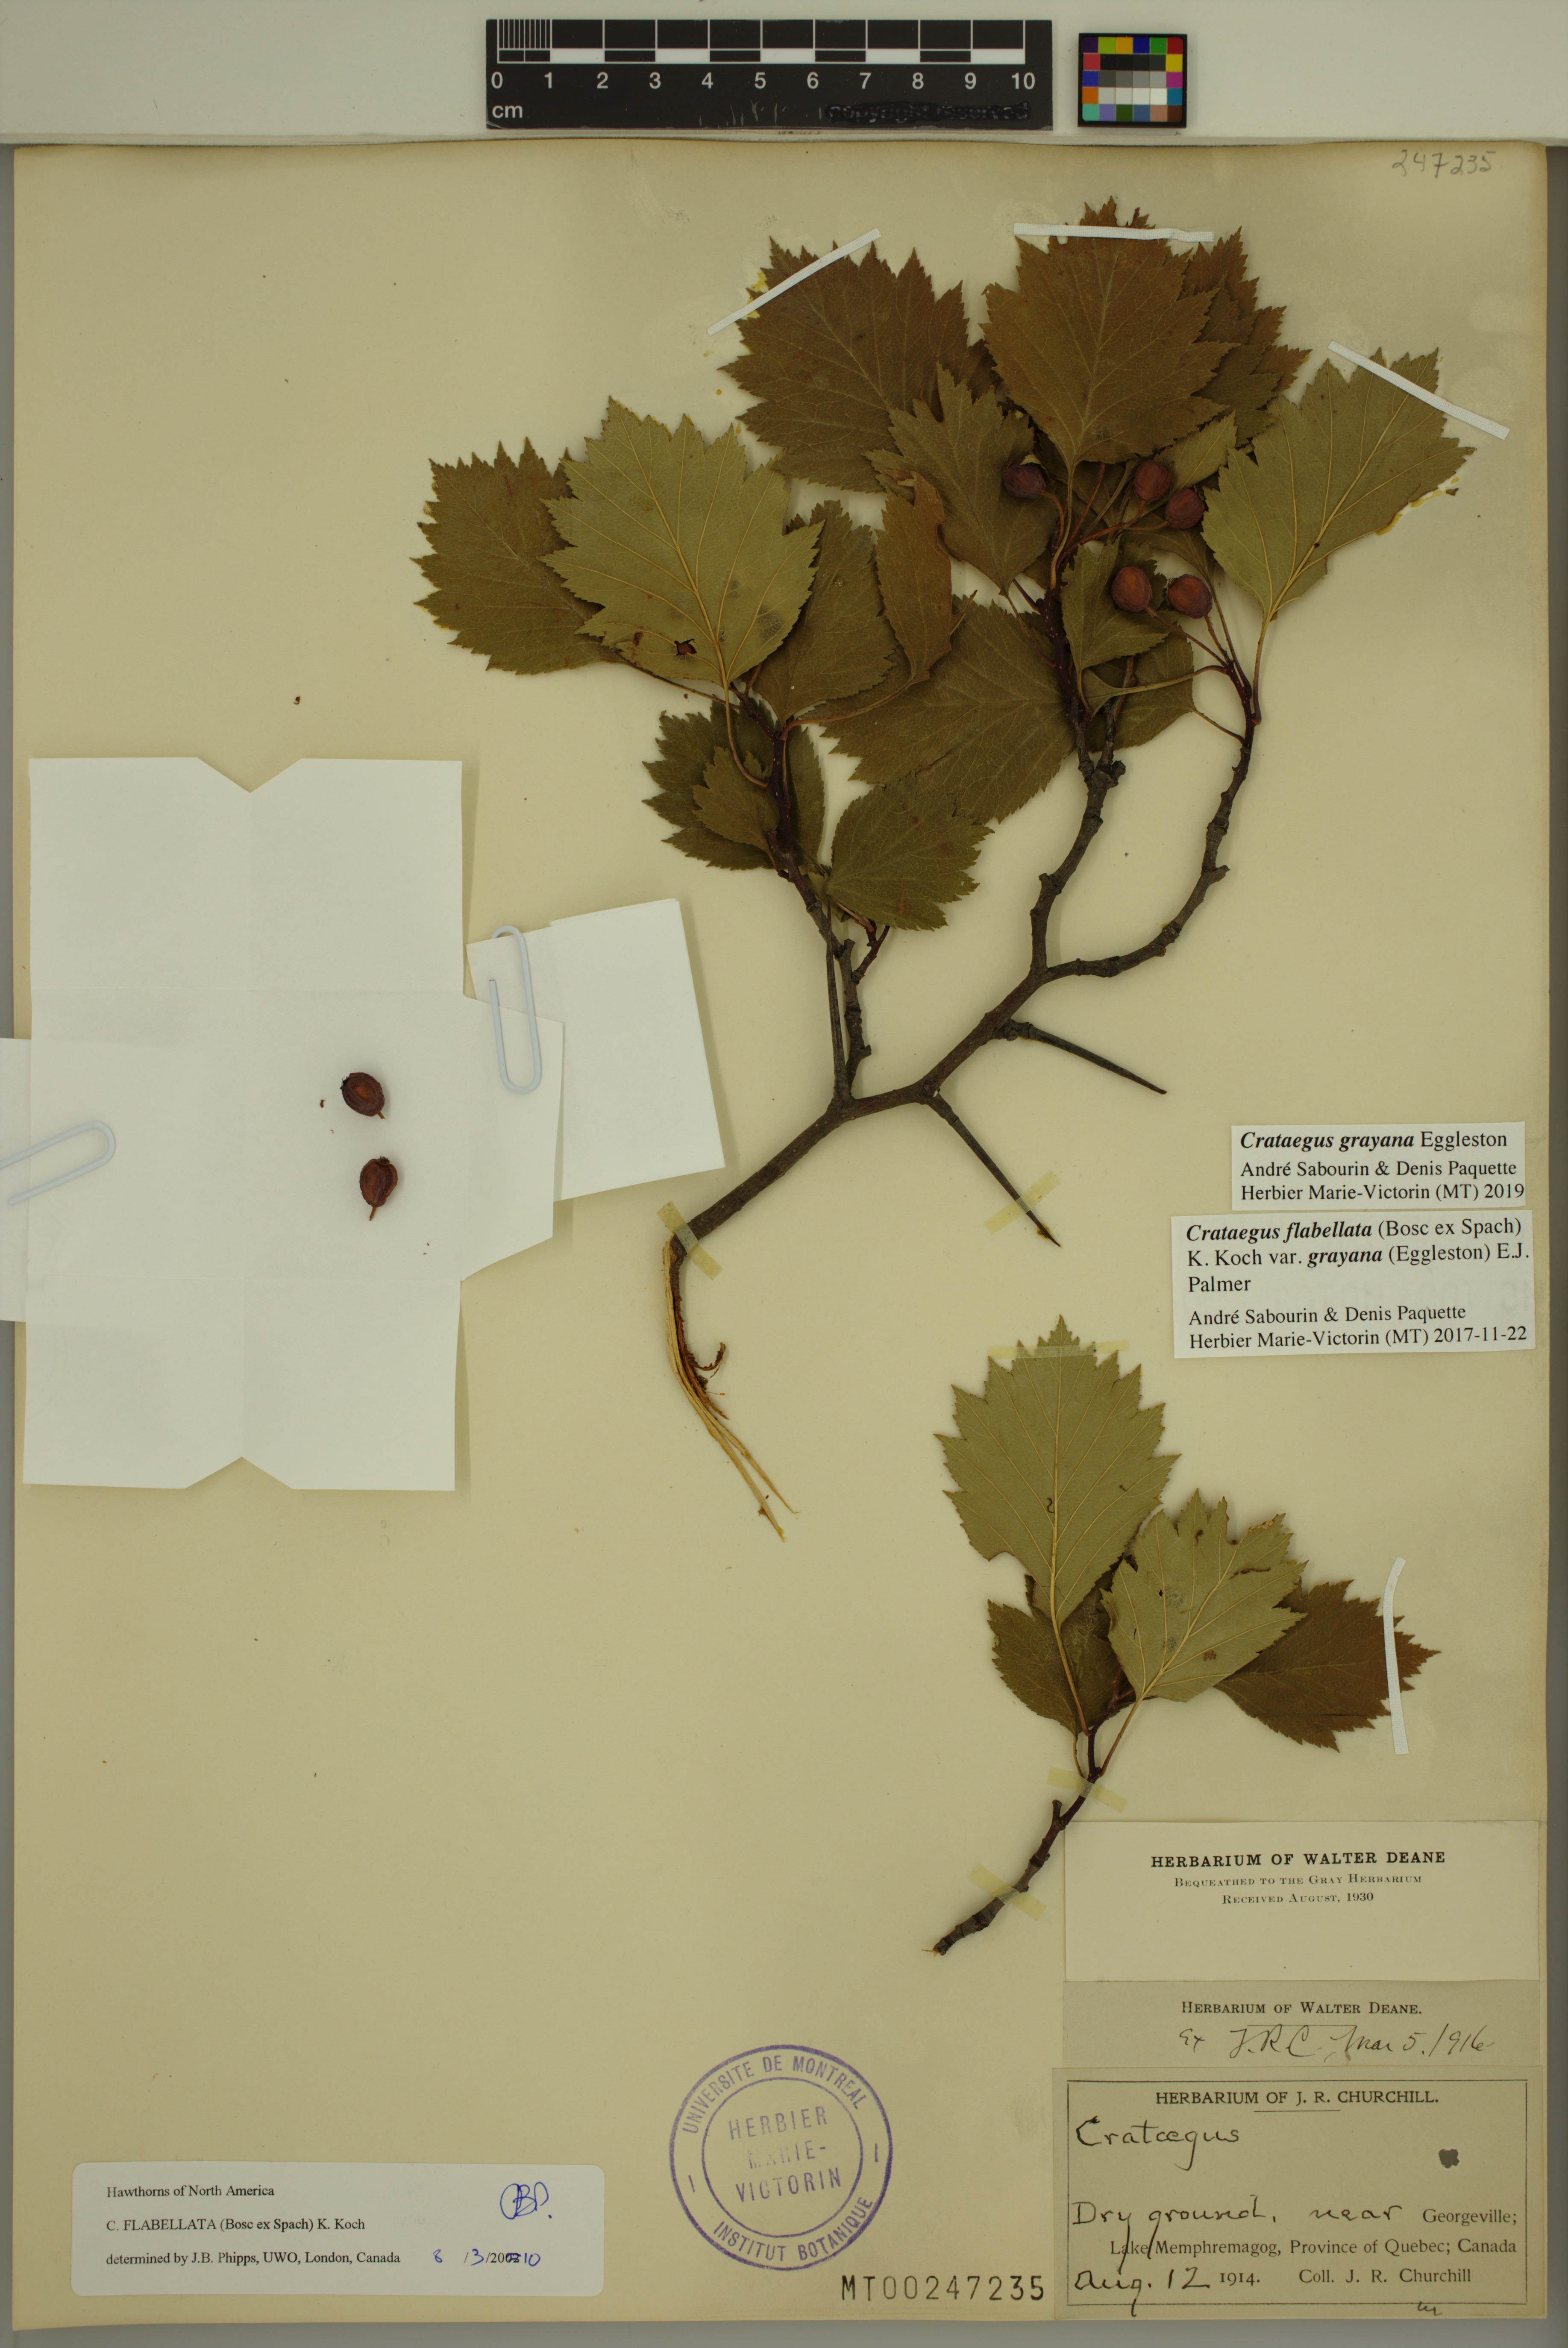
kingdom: Plantae
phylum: Tracheophyta
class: Magnoliopsida
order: Rosales
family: Rosaceae
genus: Crataegus
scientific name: Crataegus schuettei
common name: Schuette's hawthorn
